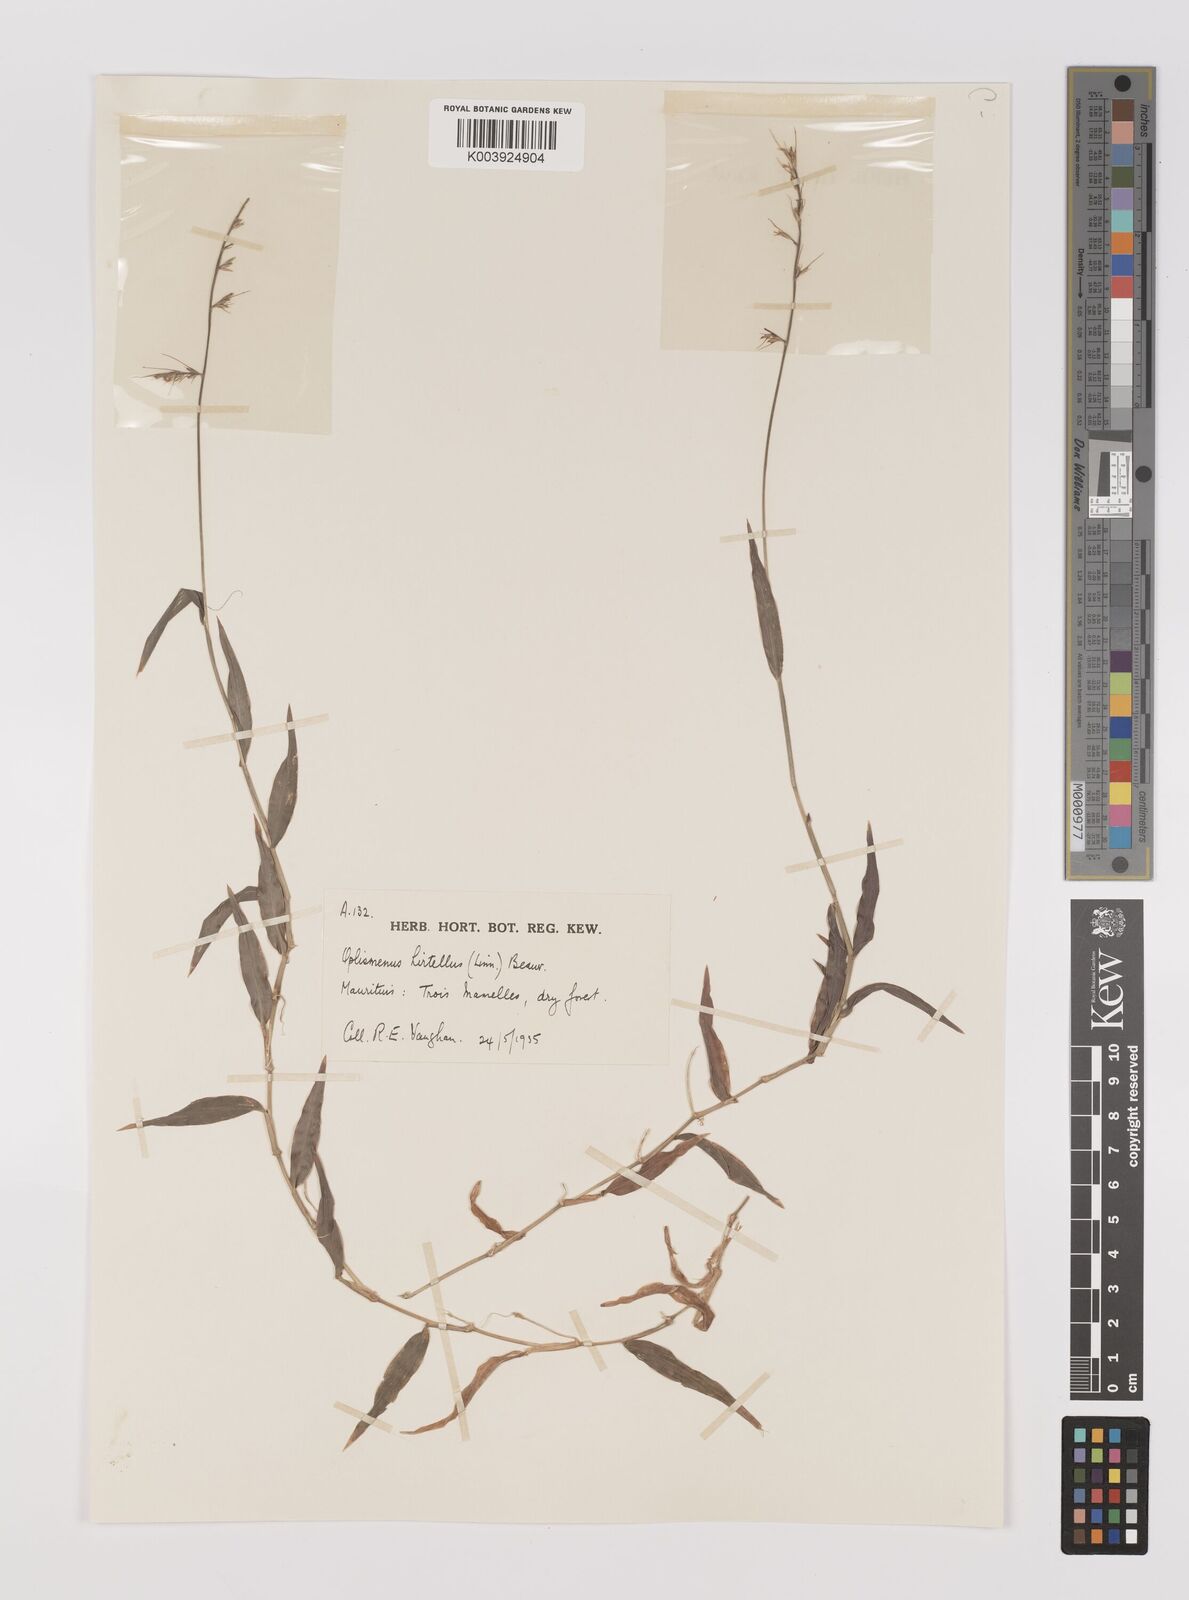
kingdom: Plantae
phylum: Tracheophyta
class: Liliopsida
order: Poales
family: Poaceae
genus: Oplismenus
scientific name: Oplismenus hirtellus
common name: Basketgrass
